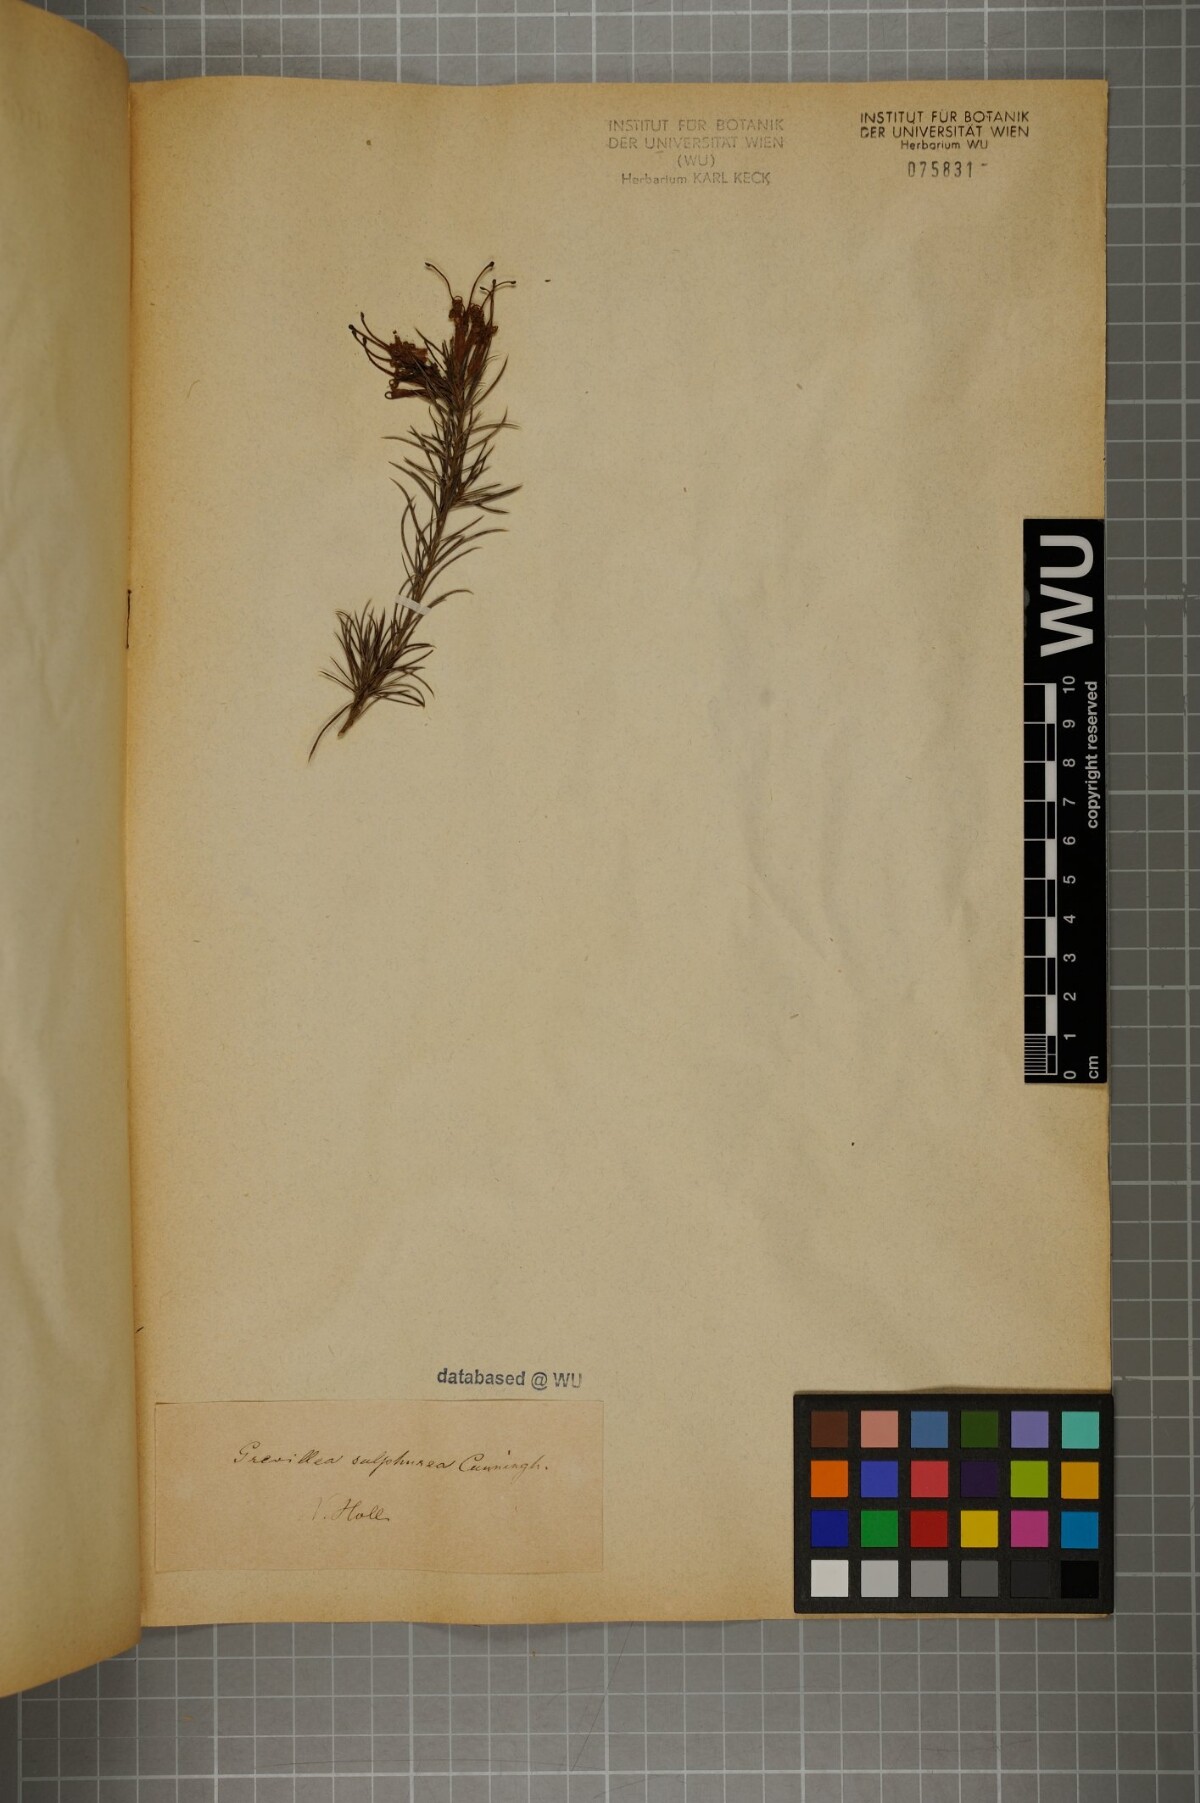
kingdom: Plantae
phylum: Tracheophyta
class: Magnoliopsida
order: Proteales
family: Proteaceae
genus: Grevillea
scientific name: Grevillea juniperina
